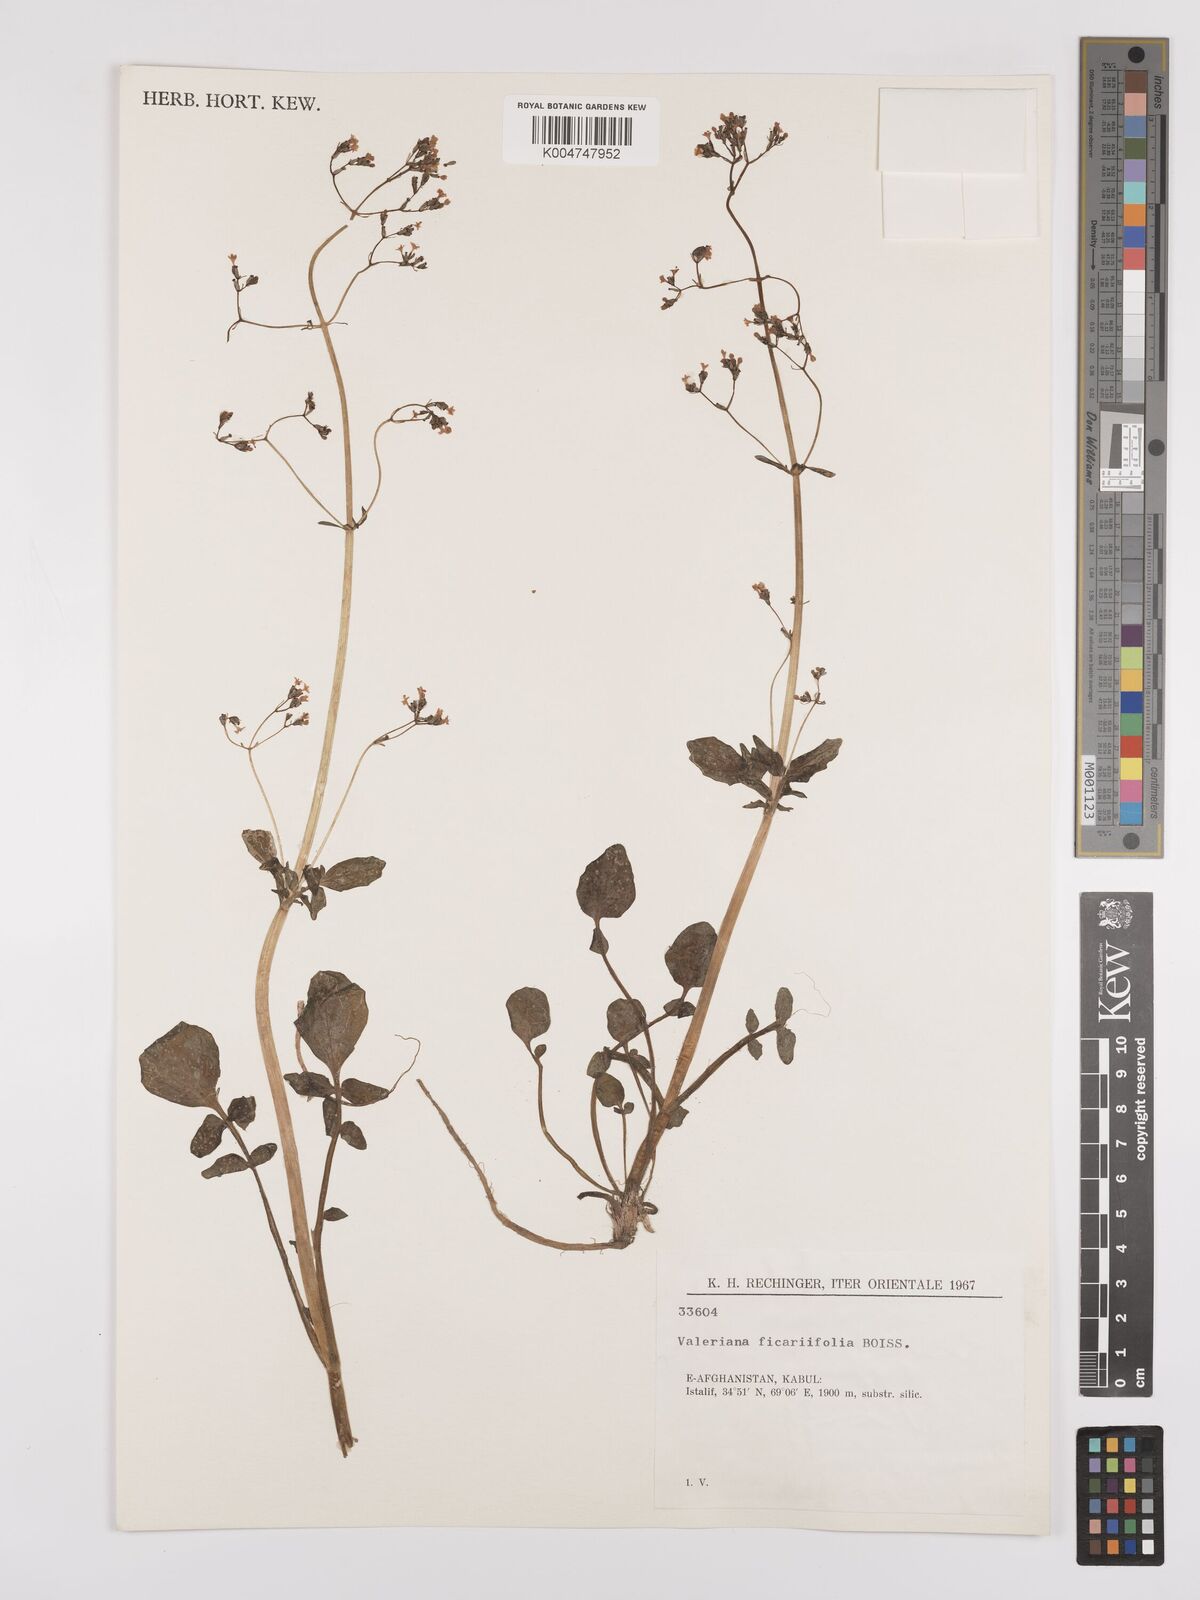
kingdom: Plantae
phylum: Tracheophyta
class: Magnoliopsida
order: Dipsacales
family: Caprifoliaceae
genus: Valeriana
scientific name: Valeriana ficariifolia
